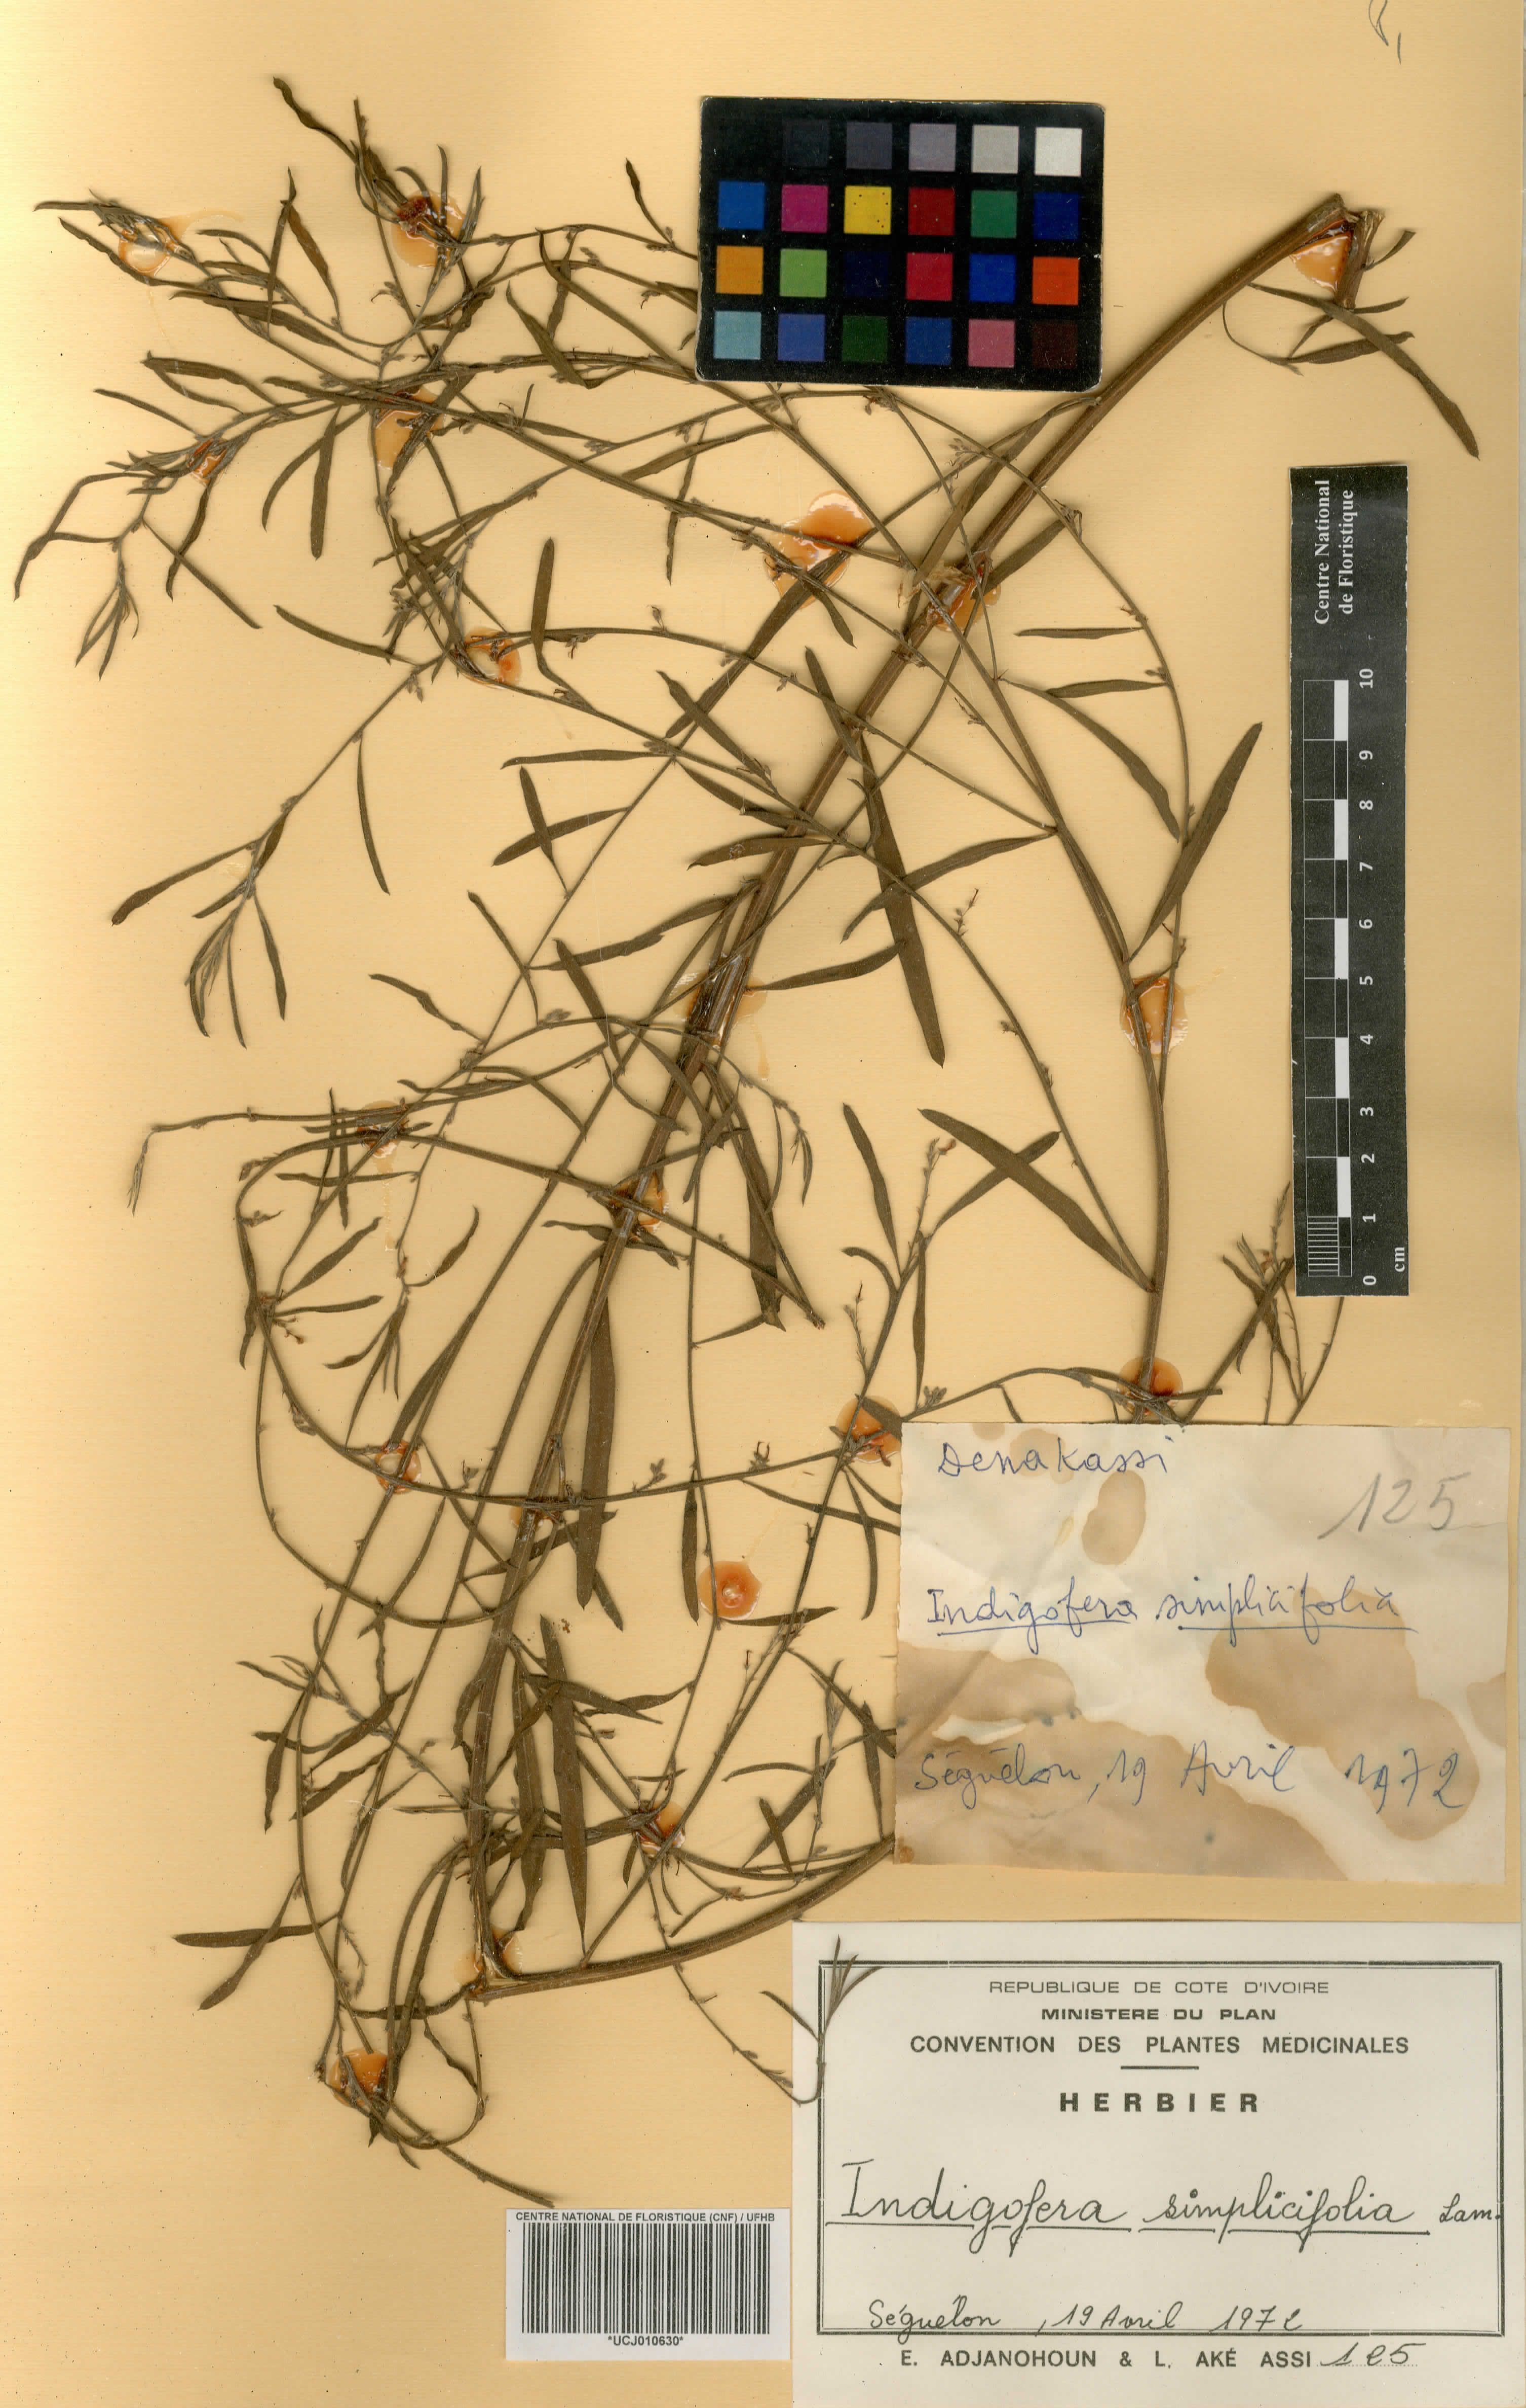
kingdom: Plantae
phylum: Tracheophyta
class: Magnoliopsida
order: Fabales
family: Fabaceae
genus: Indigofera
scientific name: Indigofera suffruticosa
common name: Anil de pasto
